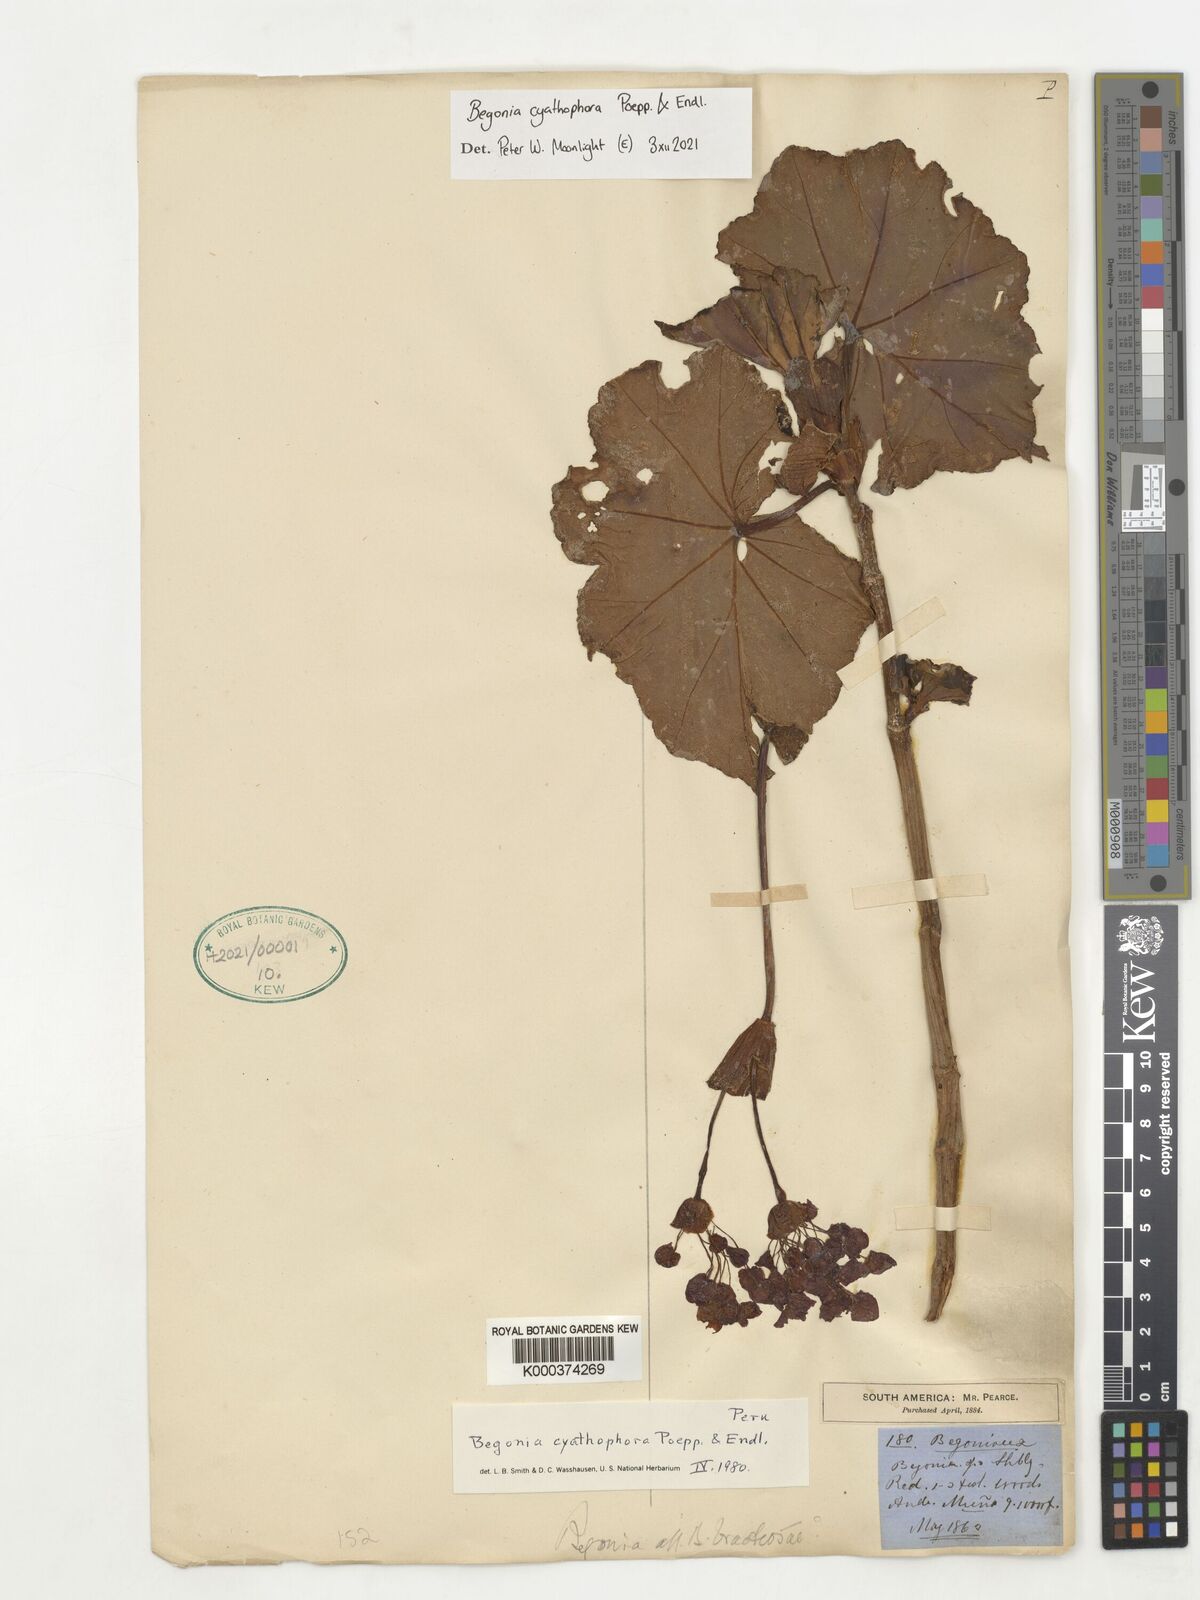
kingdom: Plantae
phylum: Tracheophyta
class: Magnoliopsida
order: Cucurbitales
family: Begoniaceae
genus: Begonia
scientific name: Begonia cyathophora
